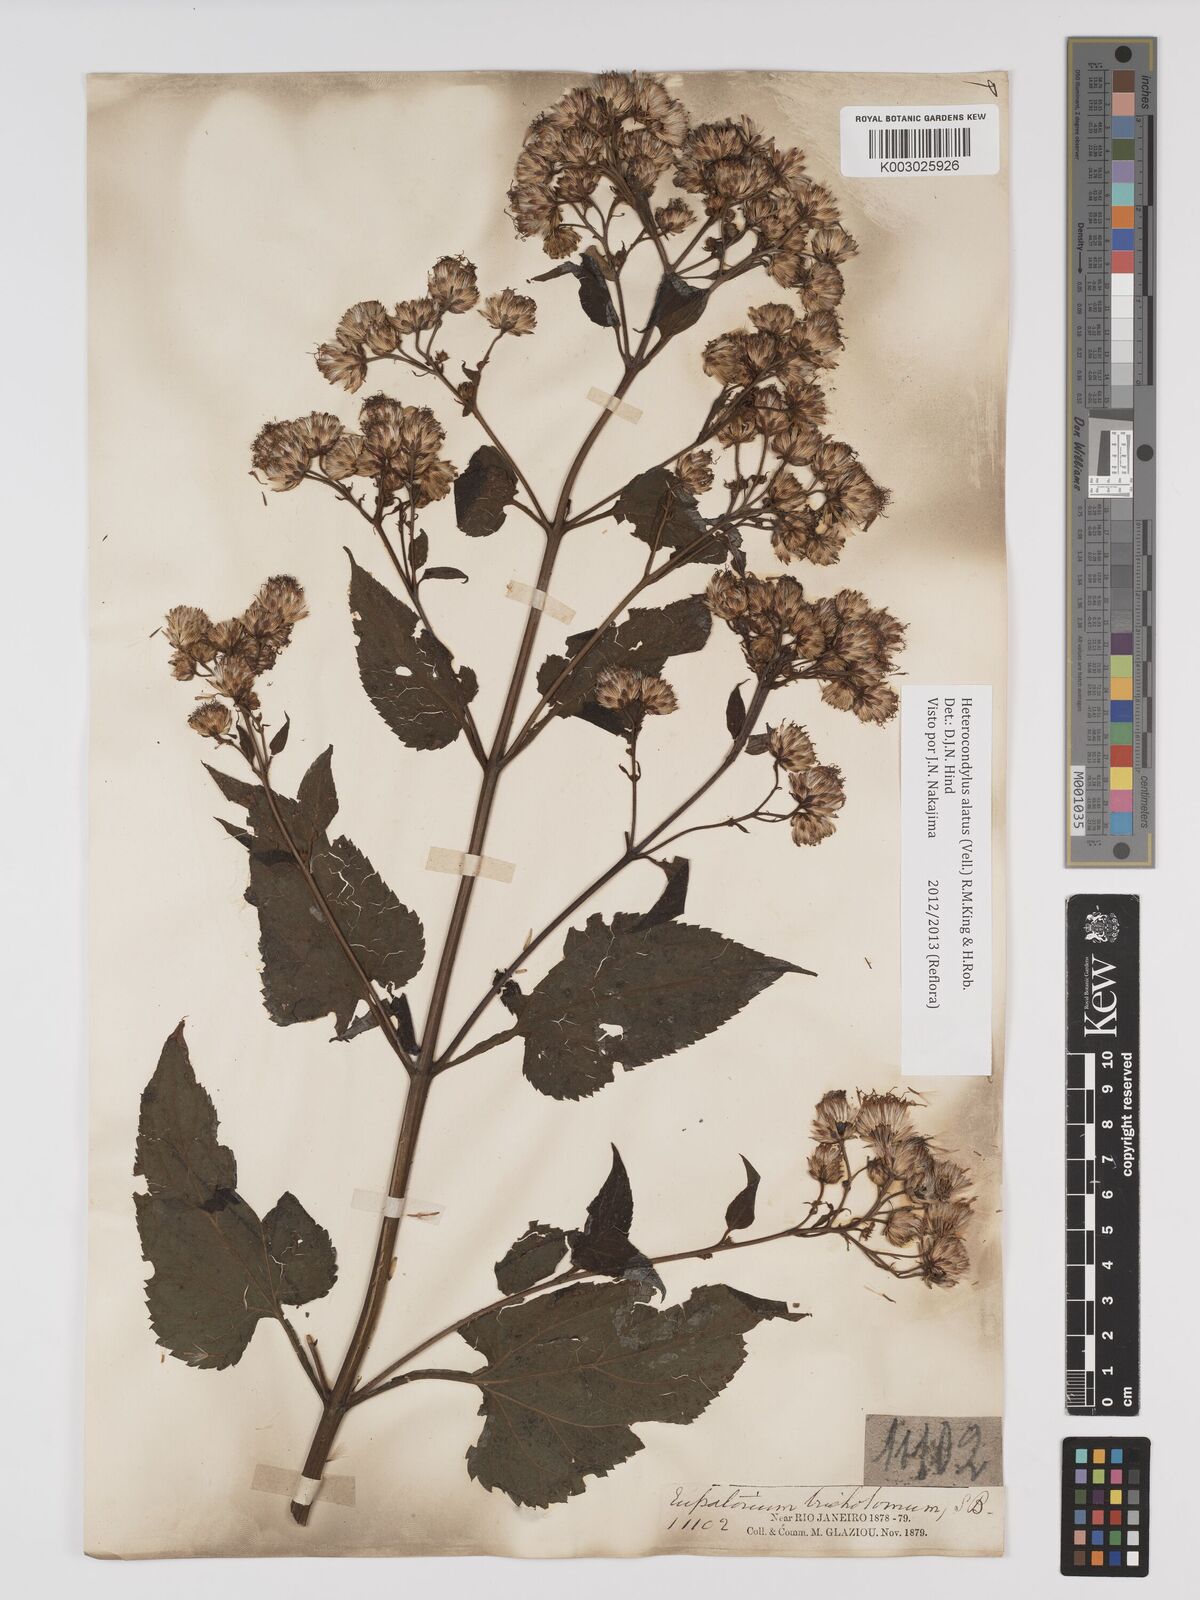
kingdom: Plantae
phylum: Tracheophyta
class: Magnoliopsida
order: Asterales
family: Asteraceae
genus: Heterocondylus
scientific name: Heterocondylus alatus
